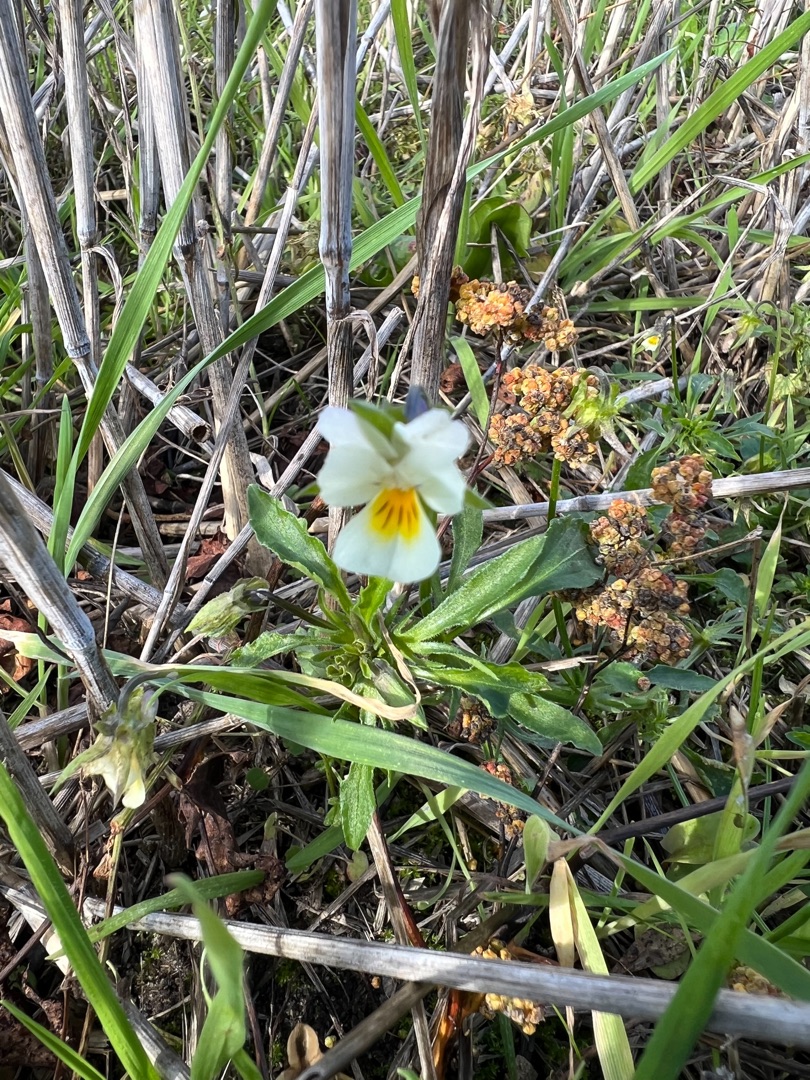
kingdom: Plantae
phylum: Tracheophyta
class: Magnoliopsida
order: Malpighiales
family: Violaceae
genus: Viola
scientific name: Viola arvensis
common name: Ager-stedmoderblomst
